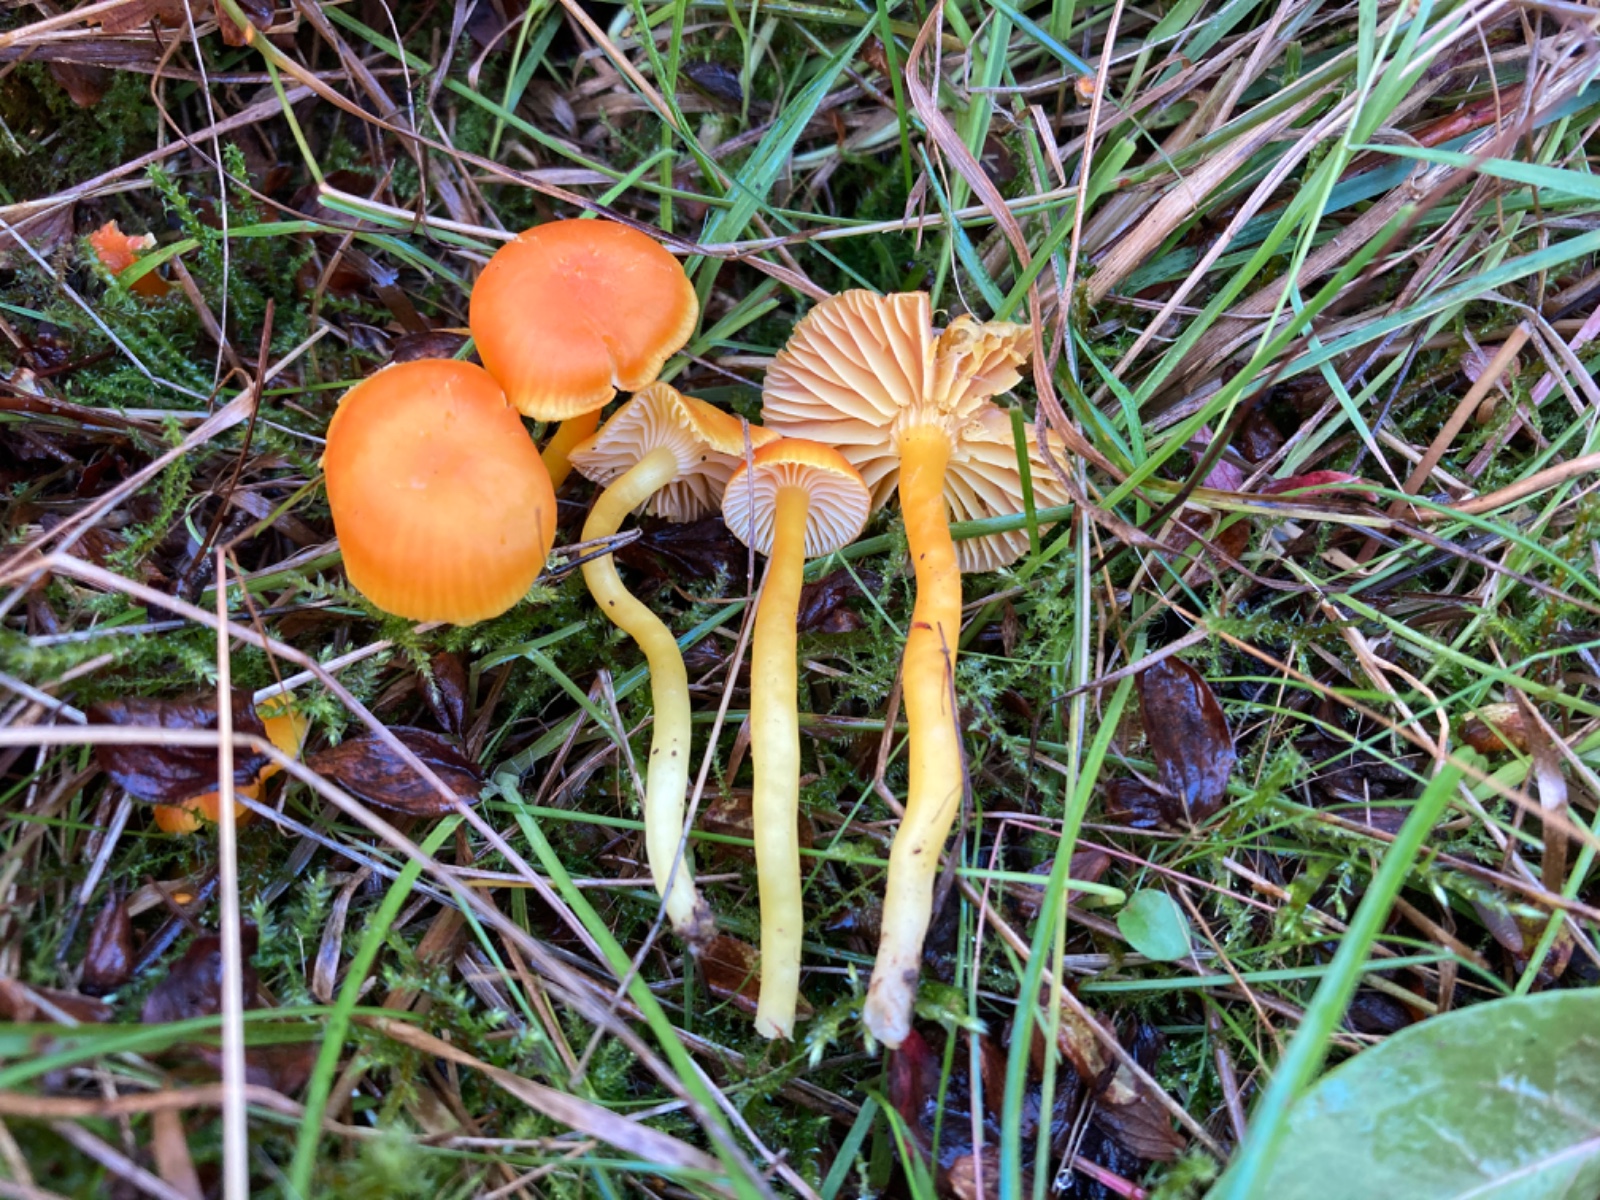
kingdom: Fungi
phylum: Basidiomycota
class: Agaricomycetes
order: Agaricales
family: Hygrophoraceae
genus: Hygrocybe
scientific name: Hygrocybe miniata
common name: mønje-vokshat
